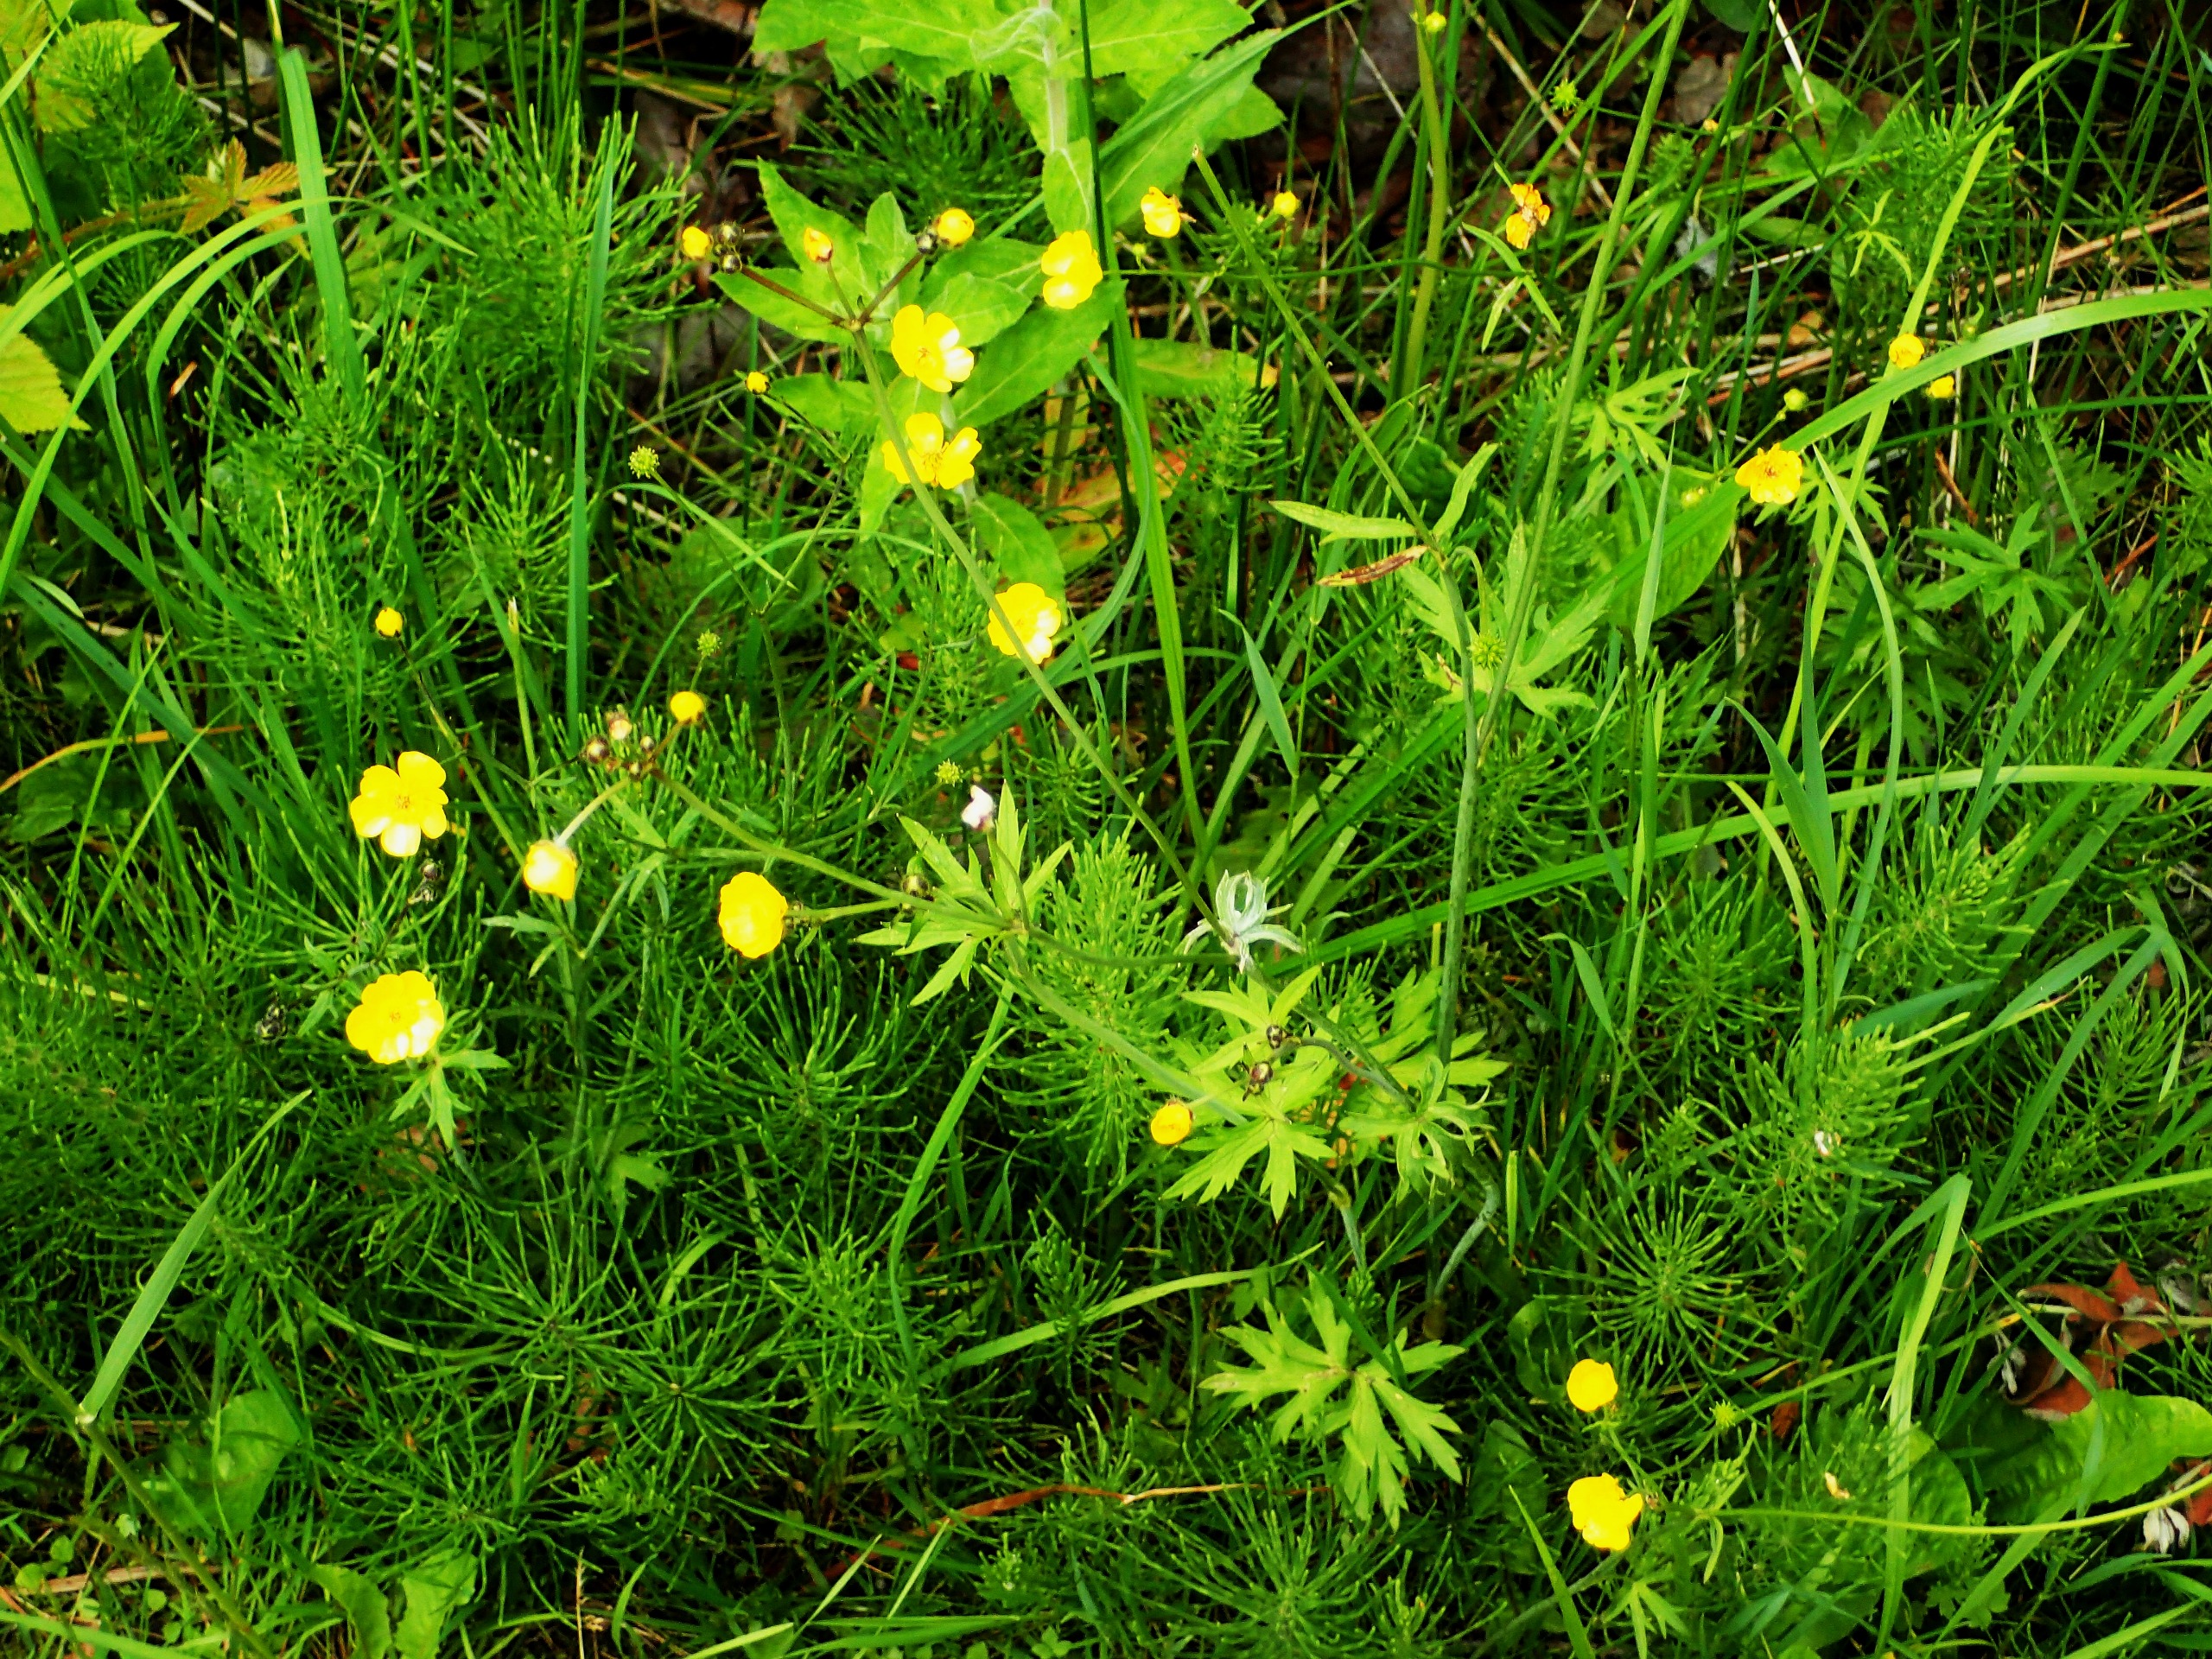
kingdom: Plantae
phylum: Tracheophyta
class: Magnoliopsida
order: Ranunculales
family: Ranunculaceae
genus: Ranunculus
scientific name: Ranunculus acris
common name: Bidende ranunkel
